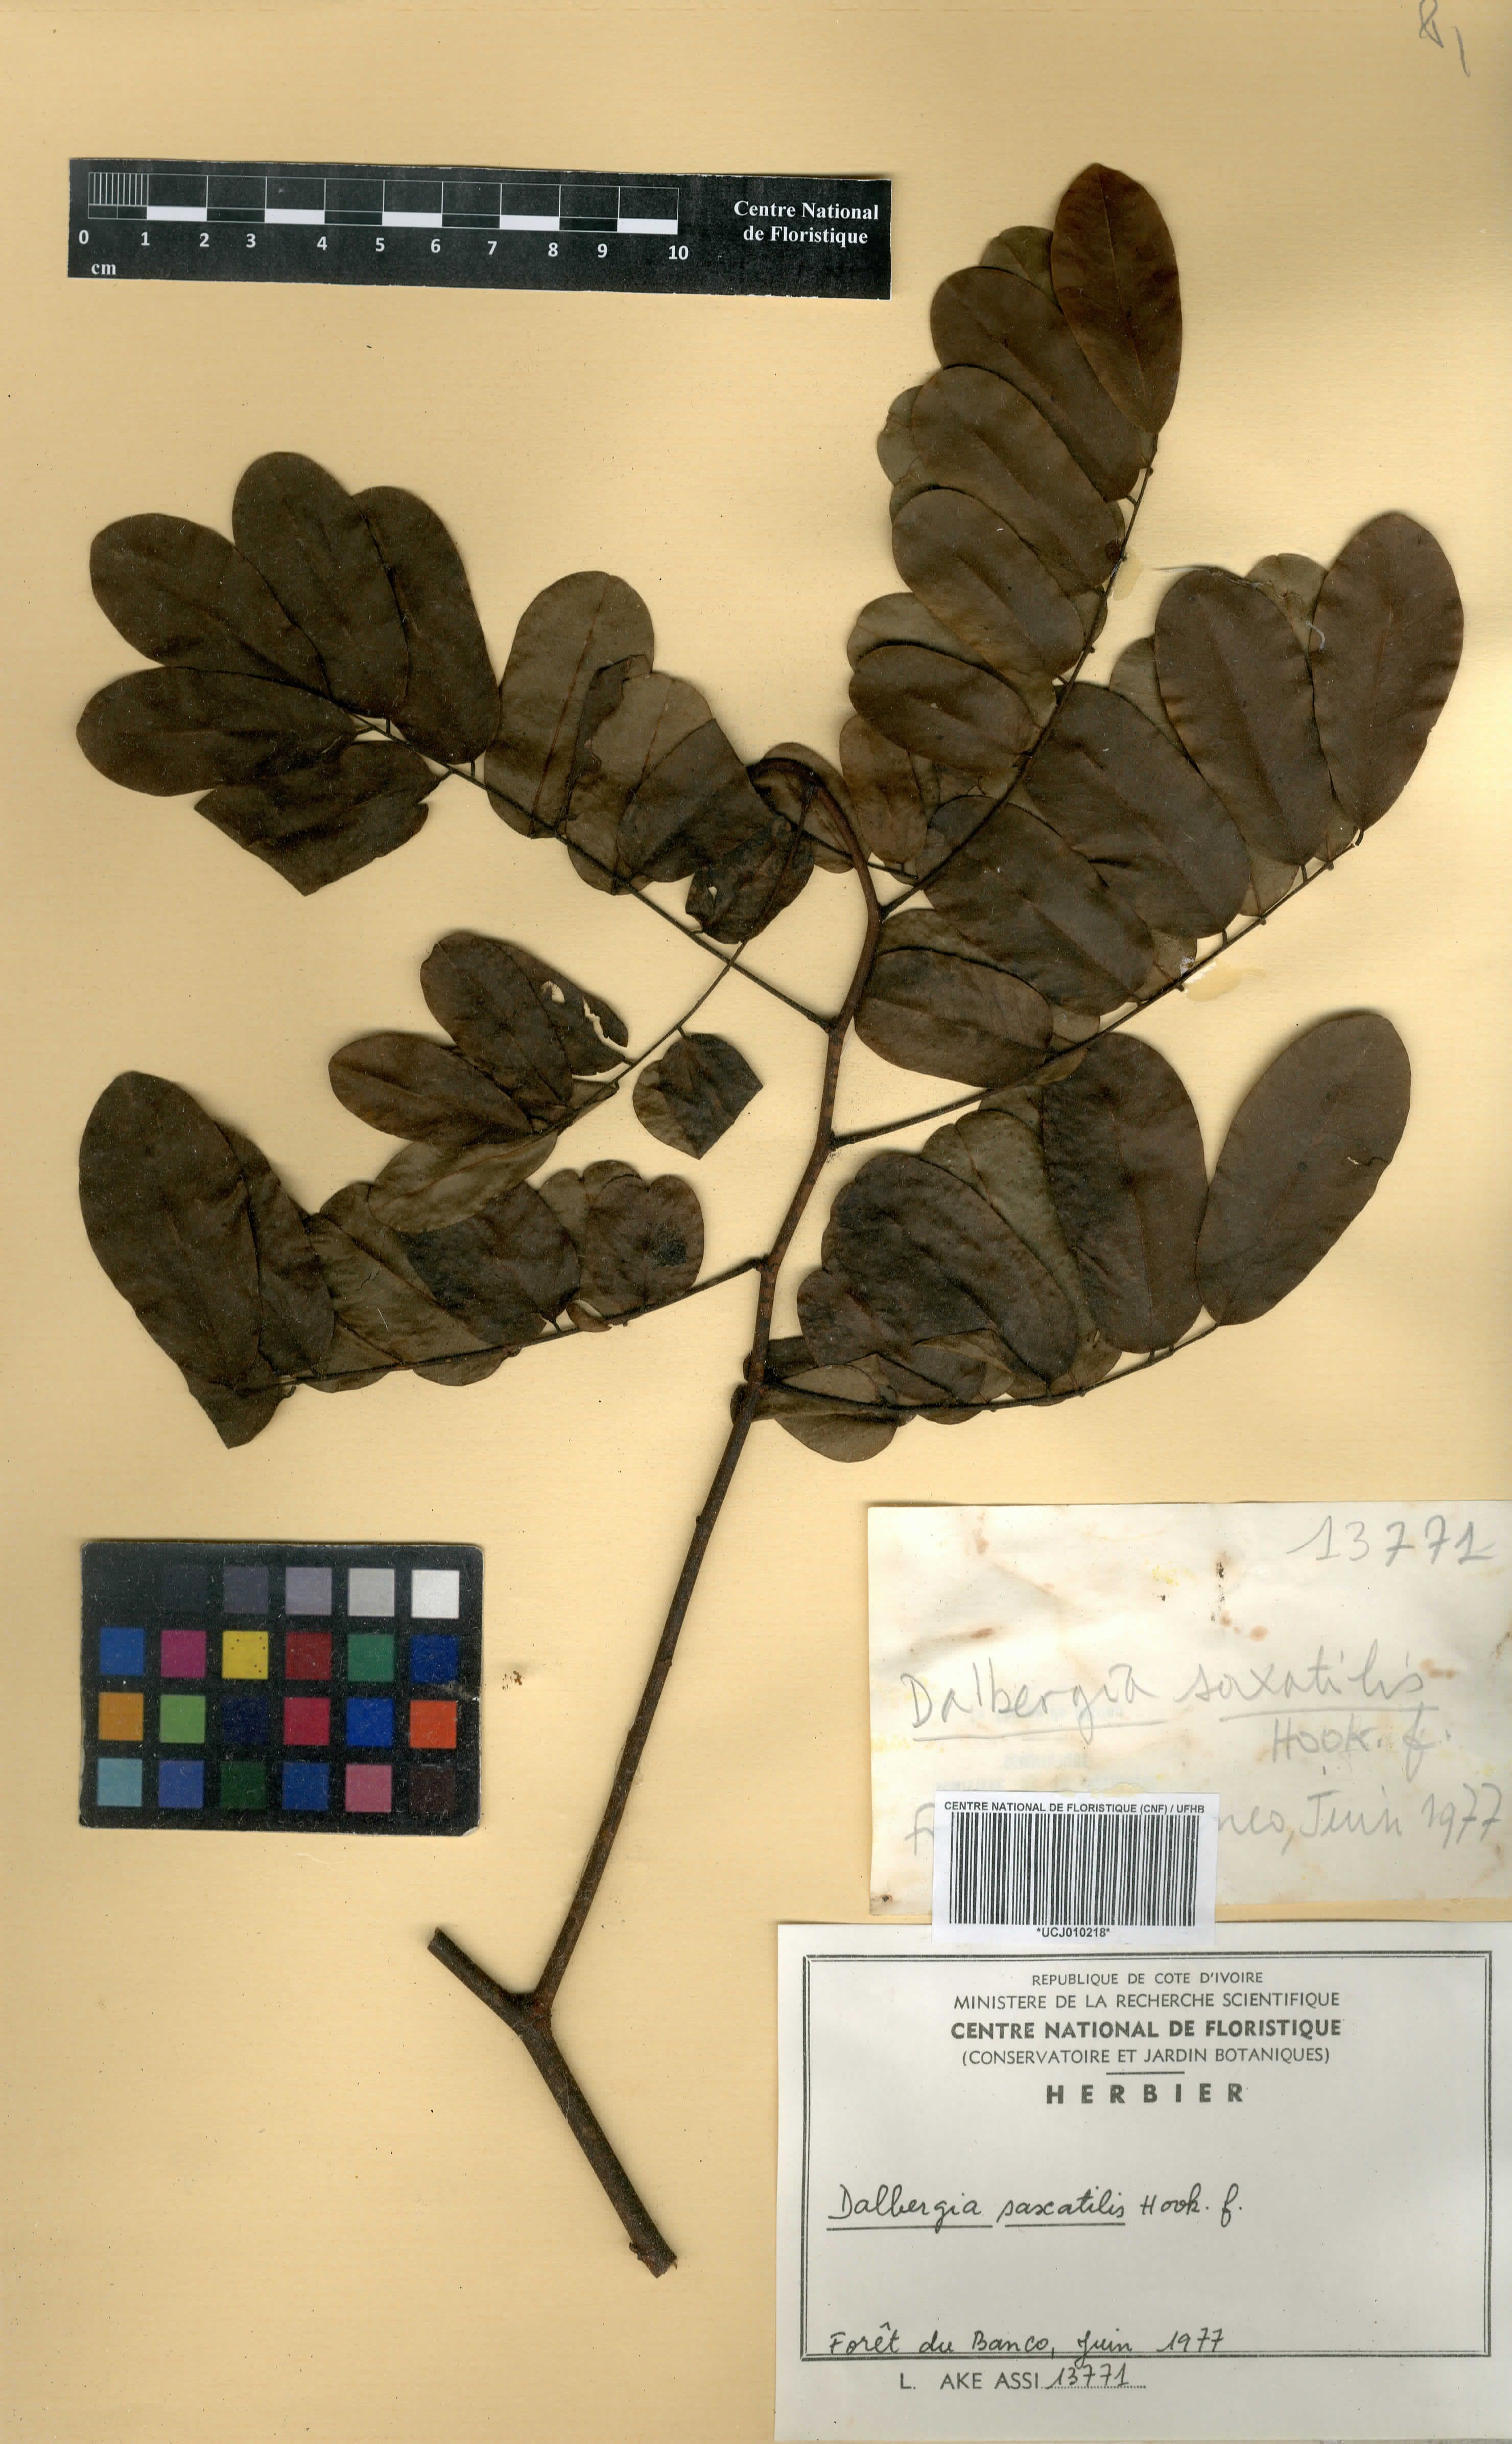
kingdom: Plantae
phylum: Tracheophyta
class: Magnoliopsida
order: Fabales
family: Fabaceae
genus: Dalbergia
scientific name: Dalbergia saxatilis
